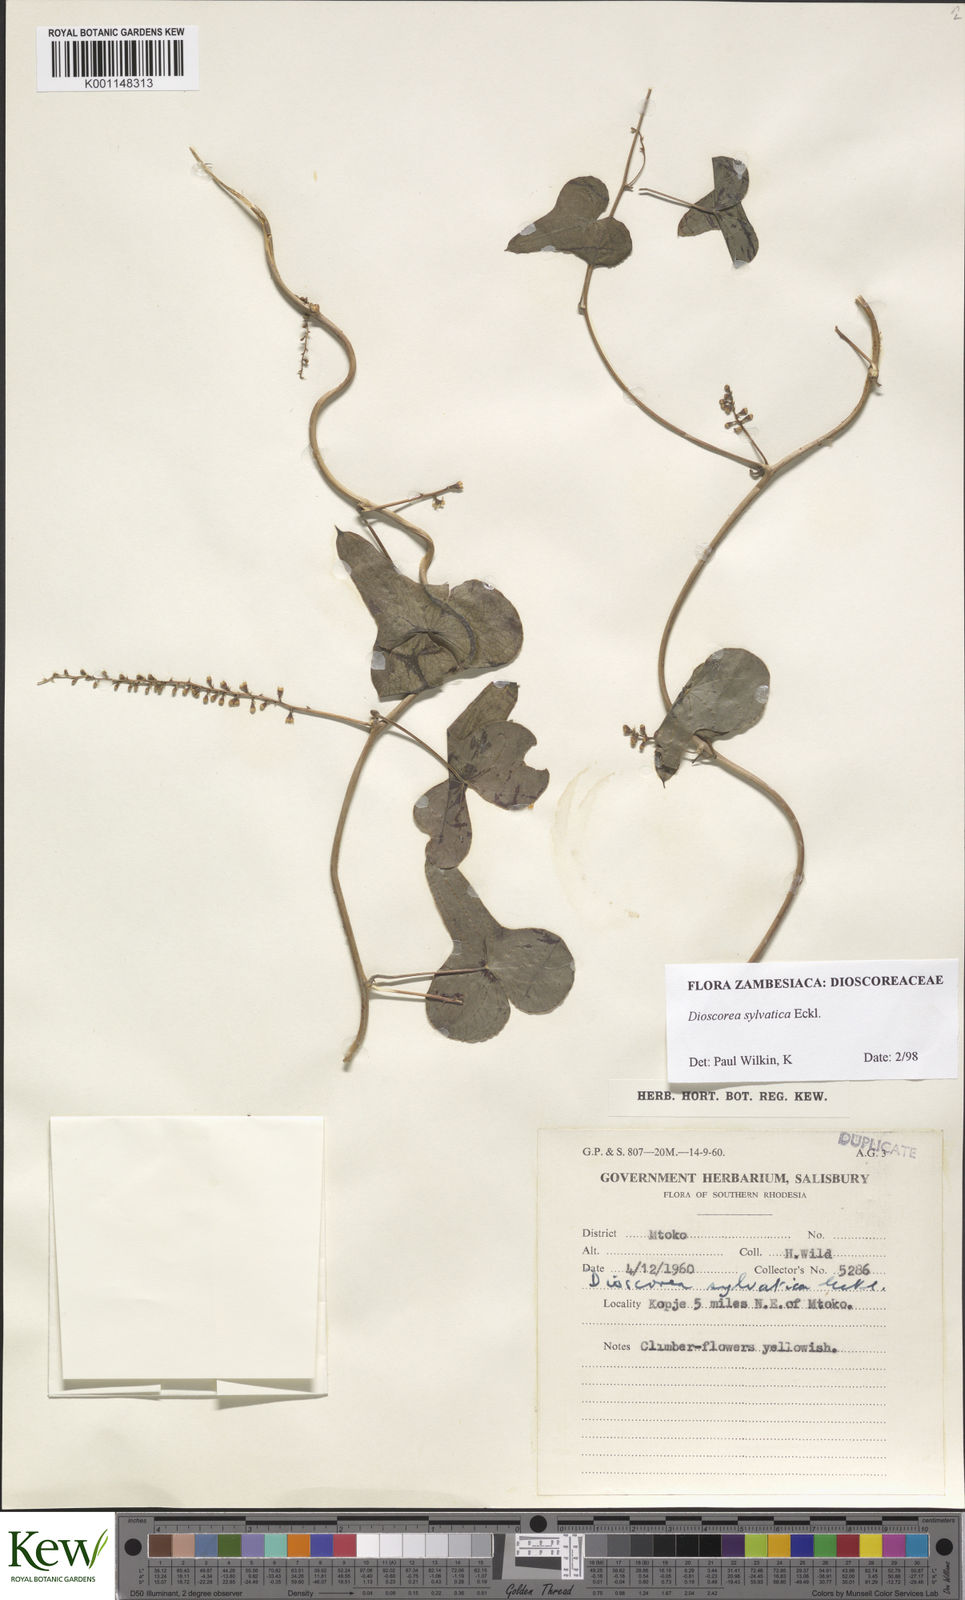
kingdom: Plantae
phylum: Tracheophyta
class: Liliopsida
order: Dioscoreales
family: Dioscoreaceae
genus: Dioscorea
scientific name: Dioscorea sylvatica
